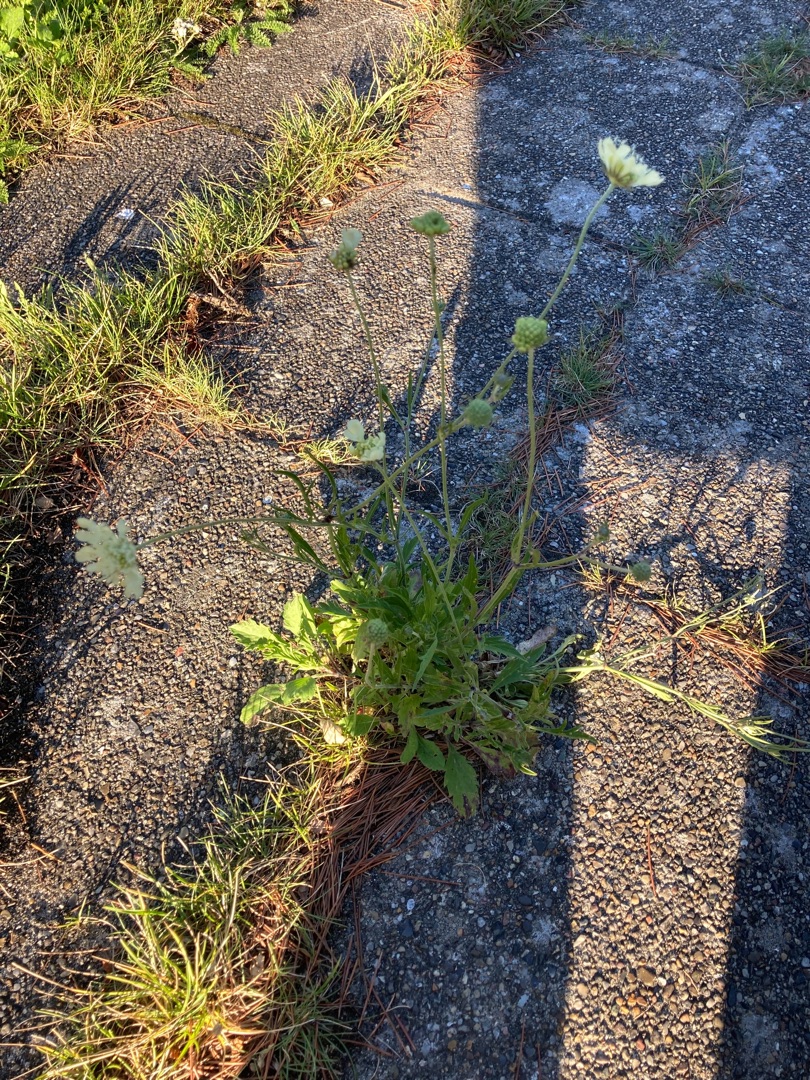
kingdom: Plantae
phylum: Tracheophyta
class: Magnoliopsida
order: Dipsacales
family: Caprifoliaceae
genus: Scabiosa
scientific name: Scabiosa ochroleuca
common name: Gul skabiose
